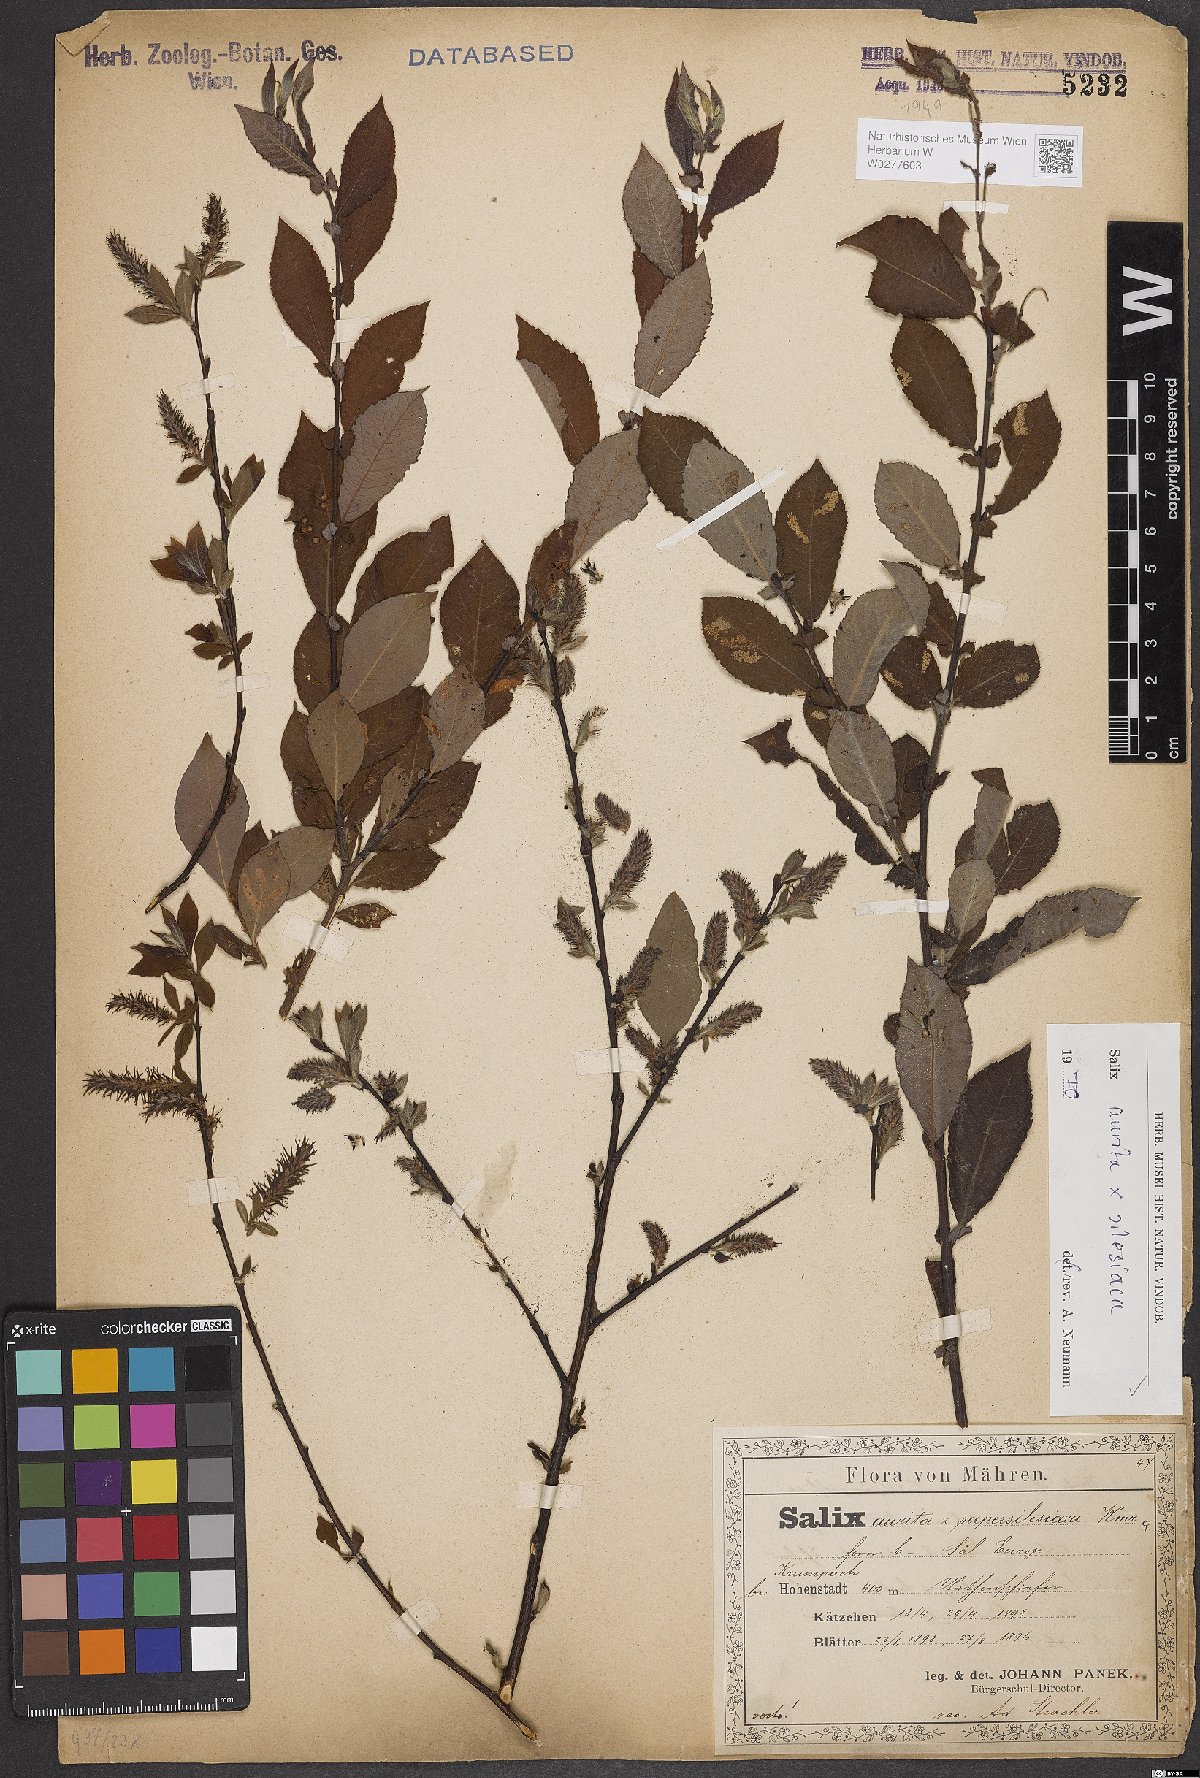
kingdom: Plantae
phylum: Tracheophyta
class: Magnoliopsida
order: Malpighiales
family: Salicaceae
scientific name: Salicaceae
